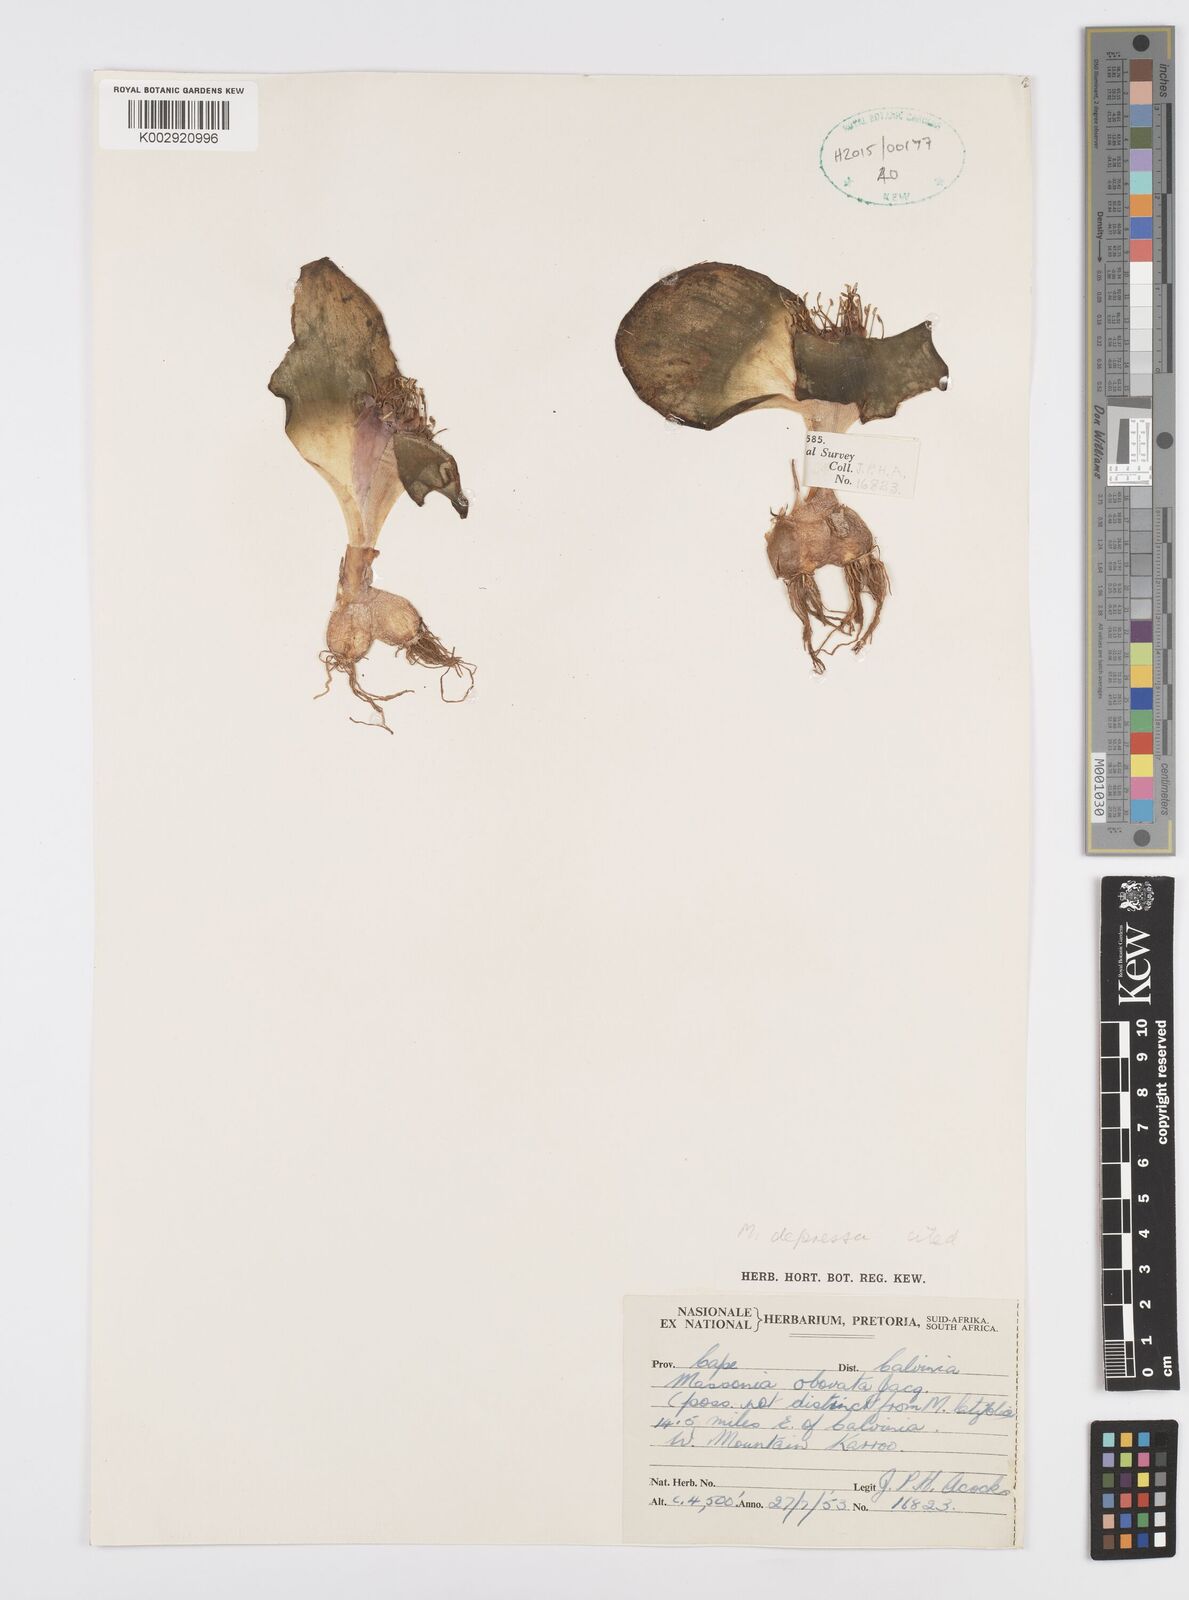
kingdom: Plantae
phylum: Tracheophyta
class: Liliopsida
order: Asparagales
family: Asparagaceae
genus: Massonia
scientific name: Massonia
